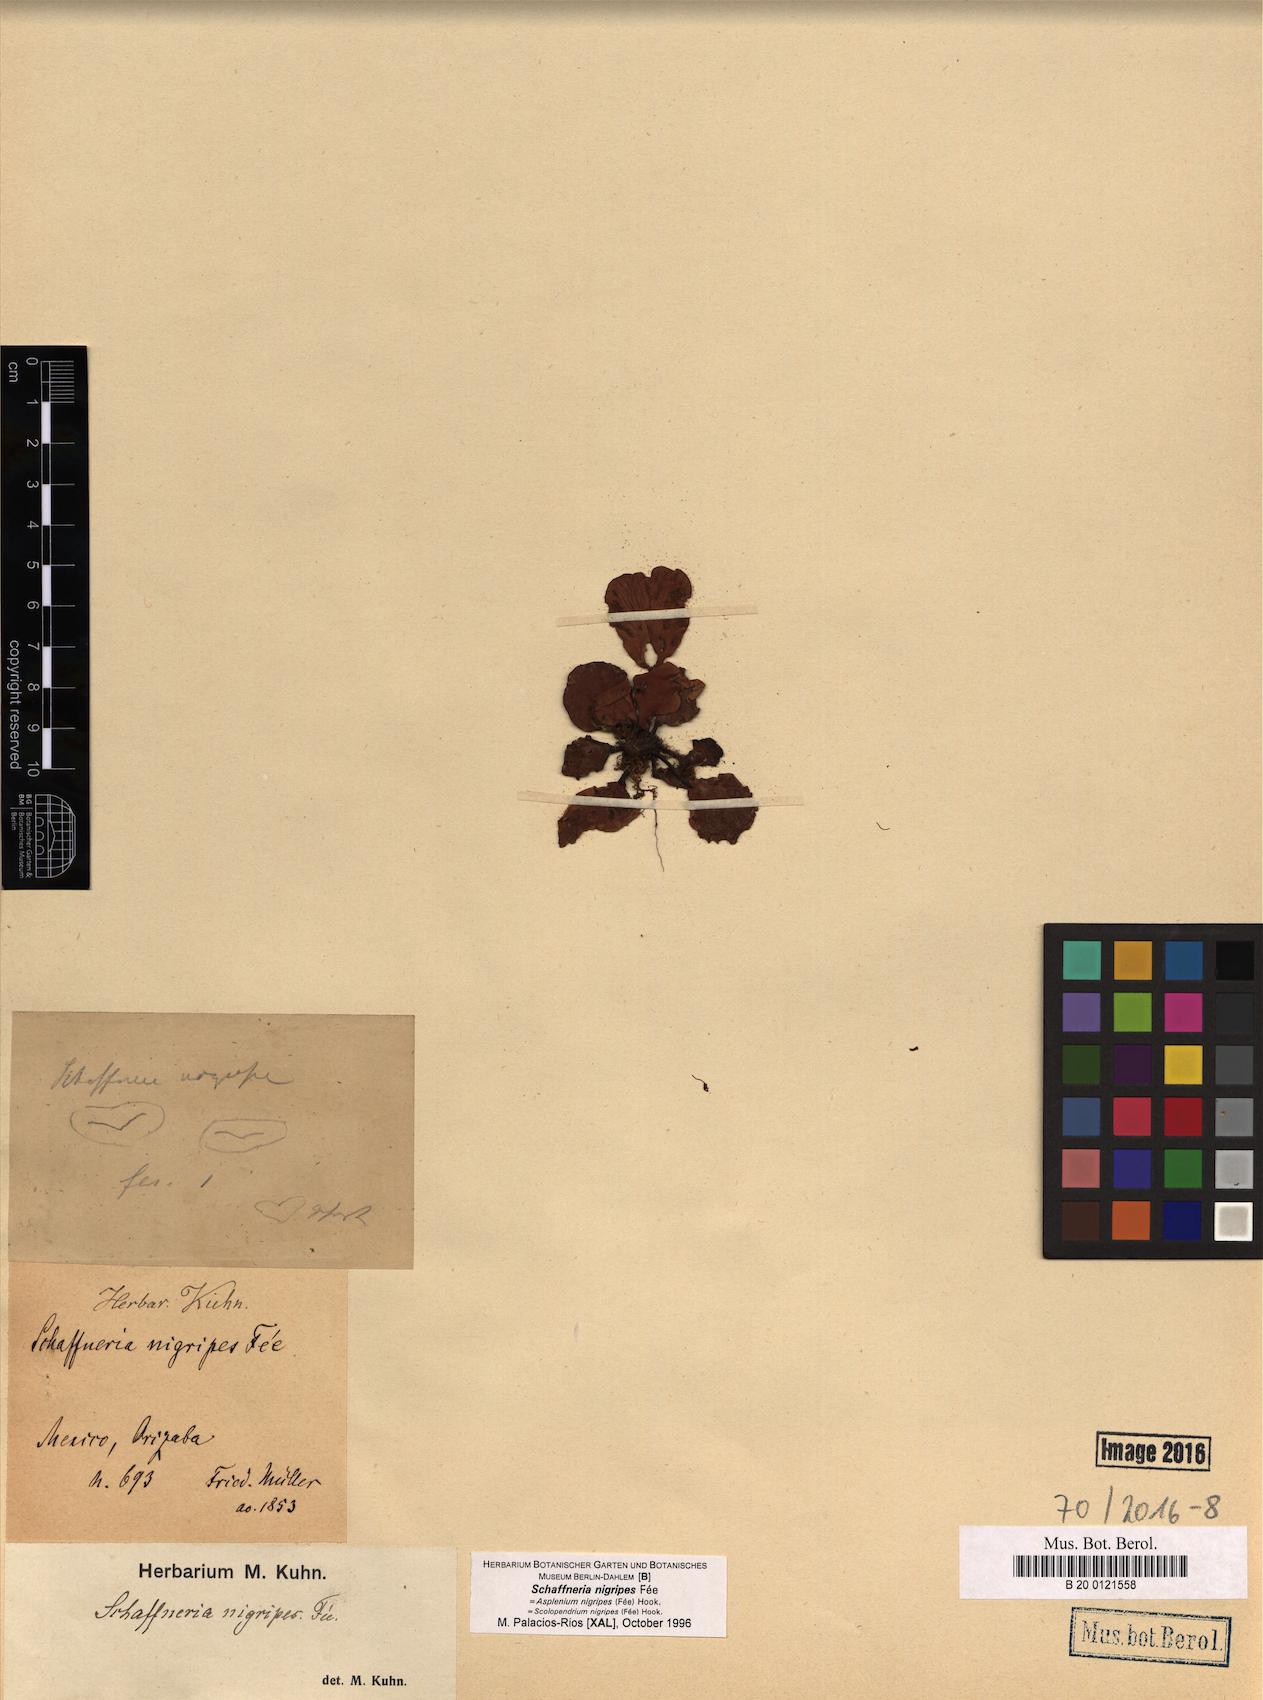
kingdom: Plantae
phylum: Tracheophyta
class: Polypodiopsida
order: Polypodiales
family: Aspleniaceae
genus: Asplenium
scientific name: Asplenium nigripes
